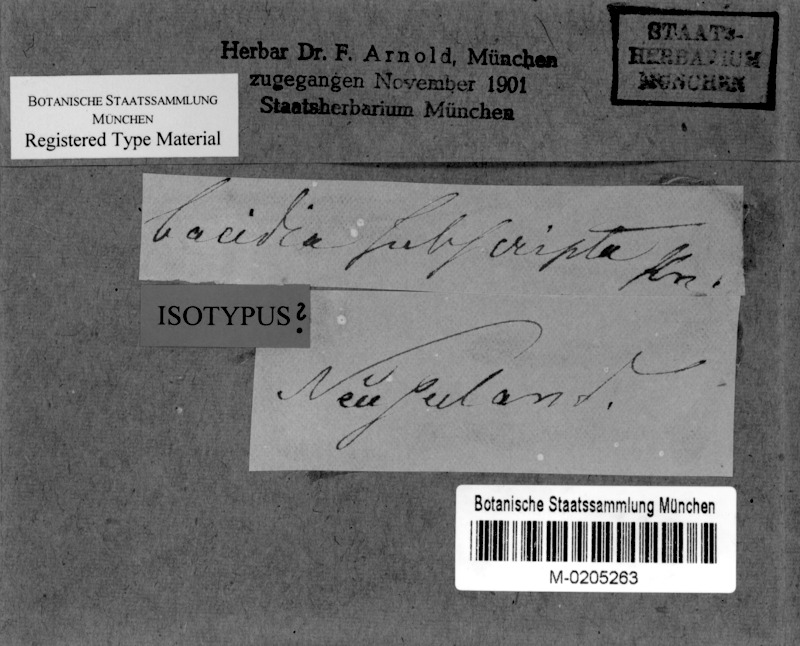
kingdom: Fungi
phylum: Ascomycota
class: Lecanoromycetes
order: Lecanorales
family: Sarrameanaceae
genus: Sarrameana
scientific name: Sarrameana albidoplumbea
